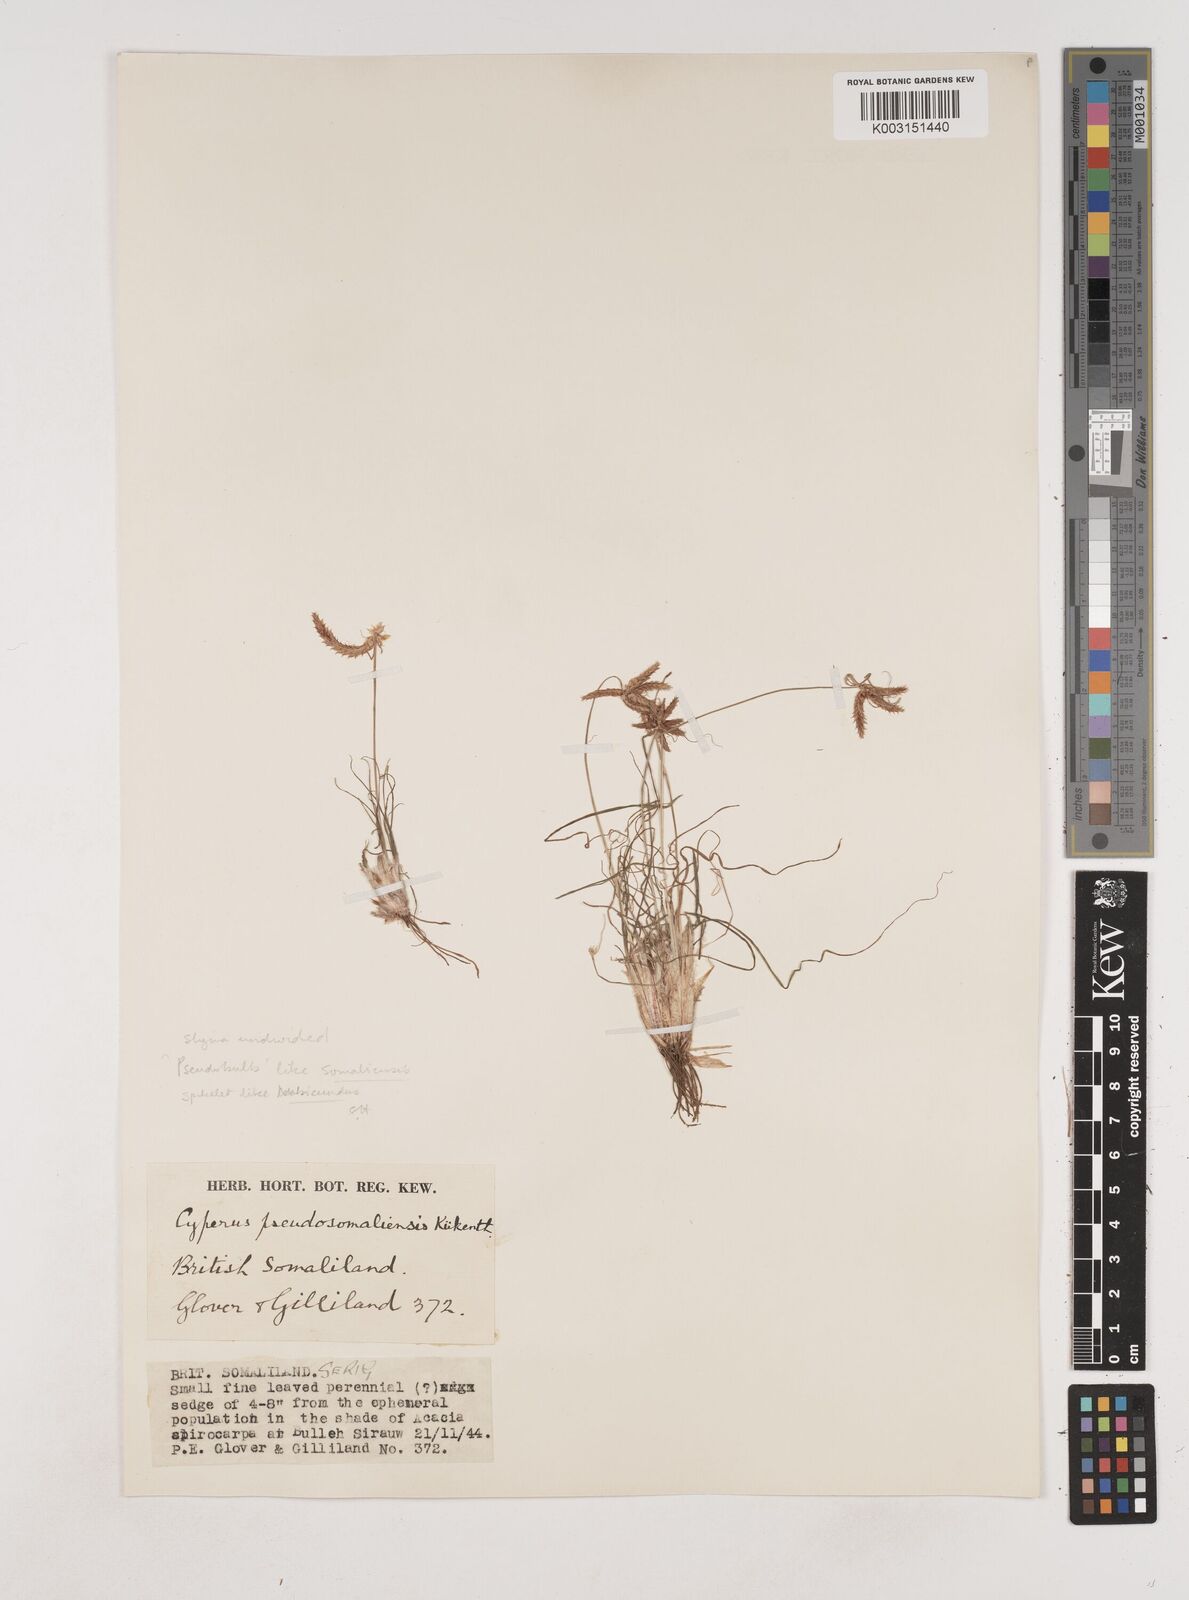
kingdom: Plantae
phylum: Tracheophyta
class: Liliopsida
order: Poales
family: Cyperaceae
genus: Cyperus
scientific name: Cyperus pseudosomaliensis
